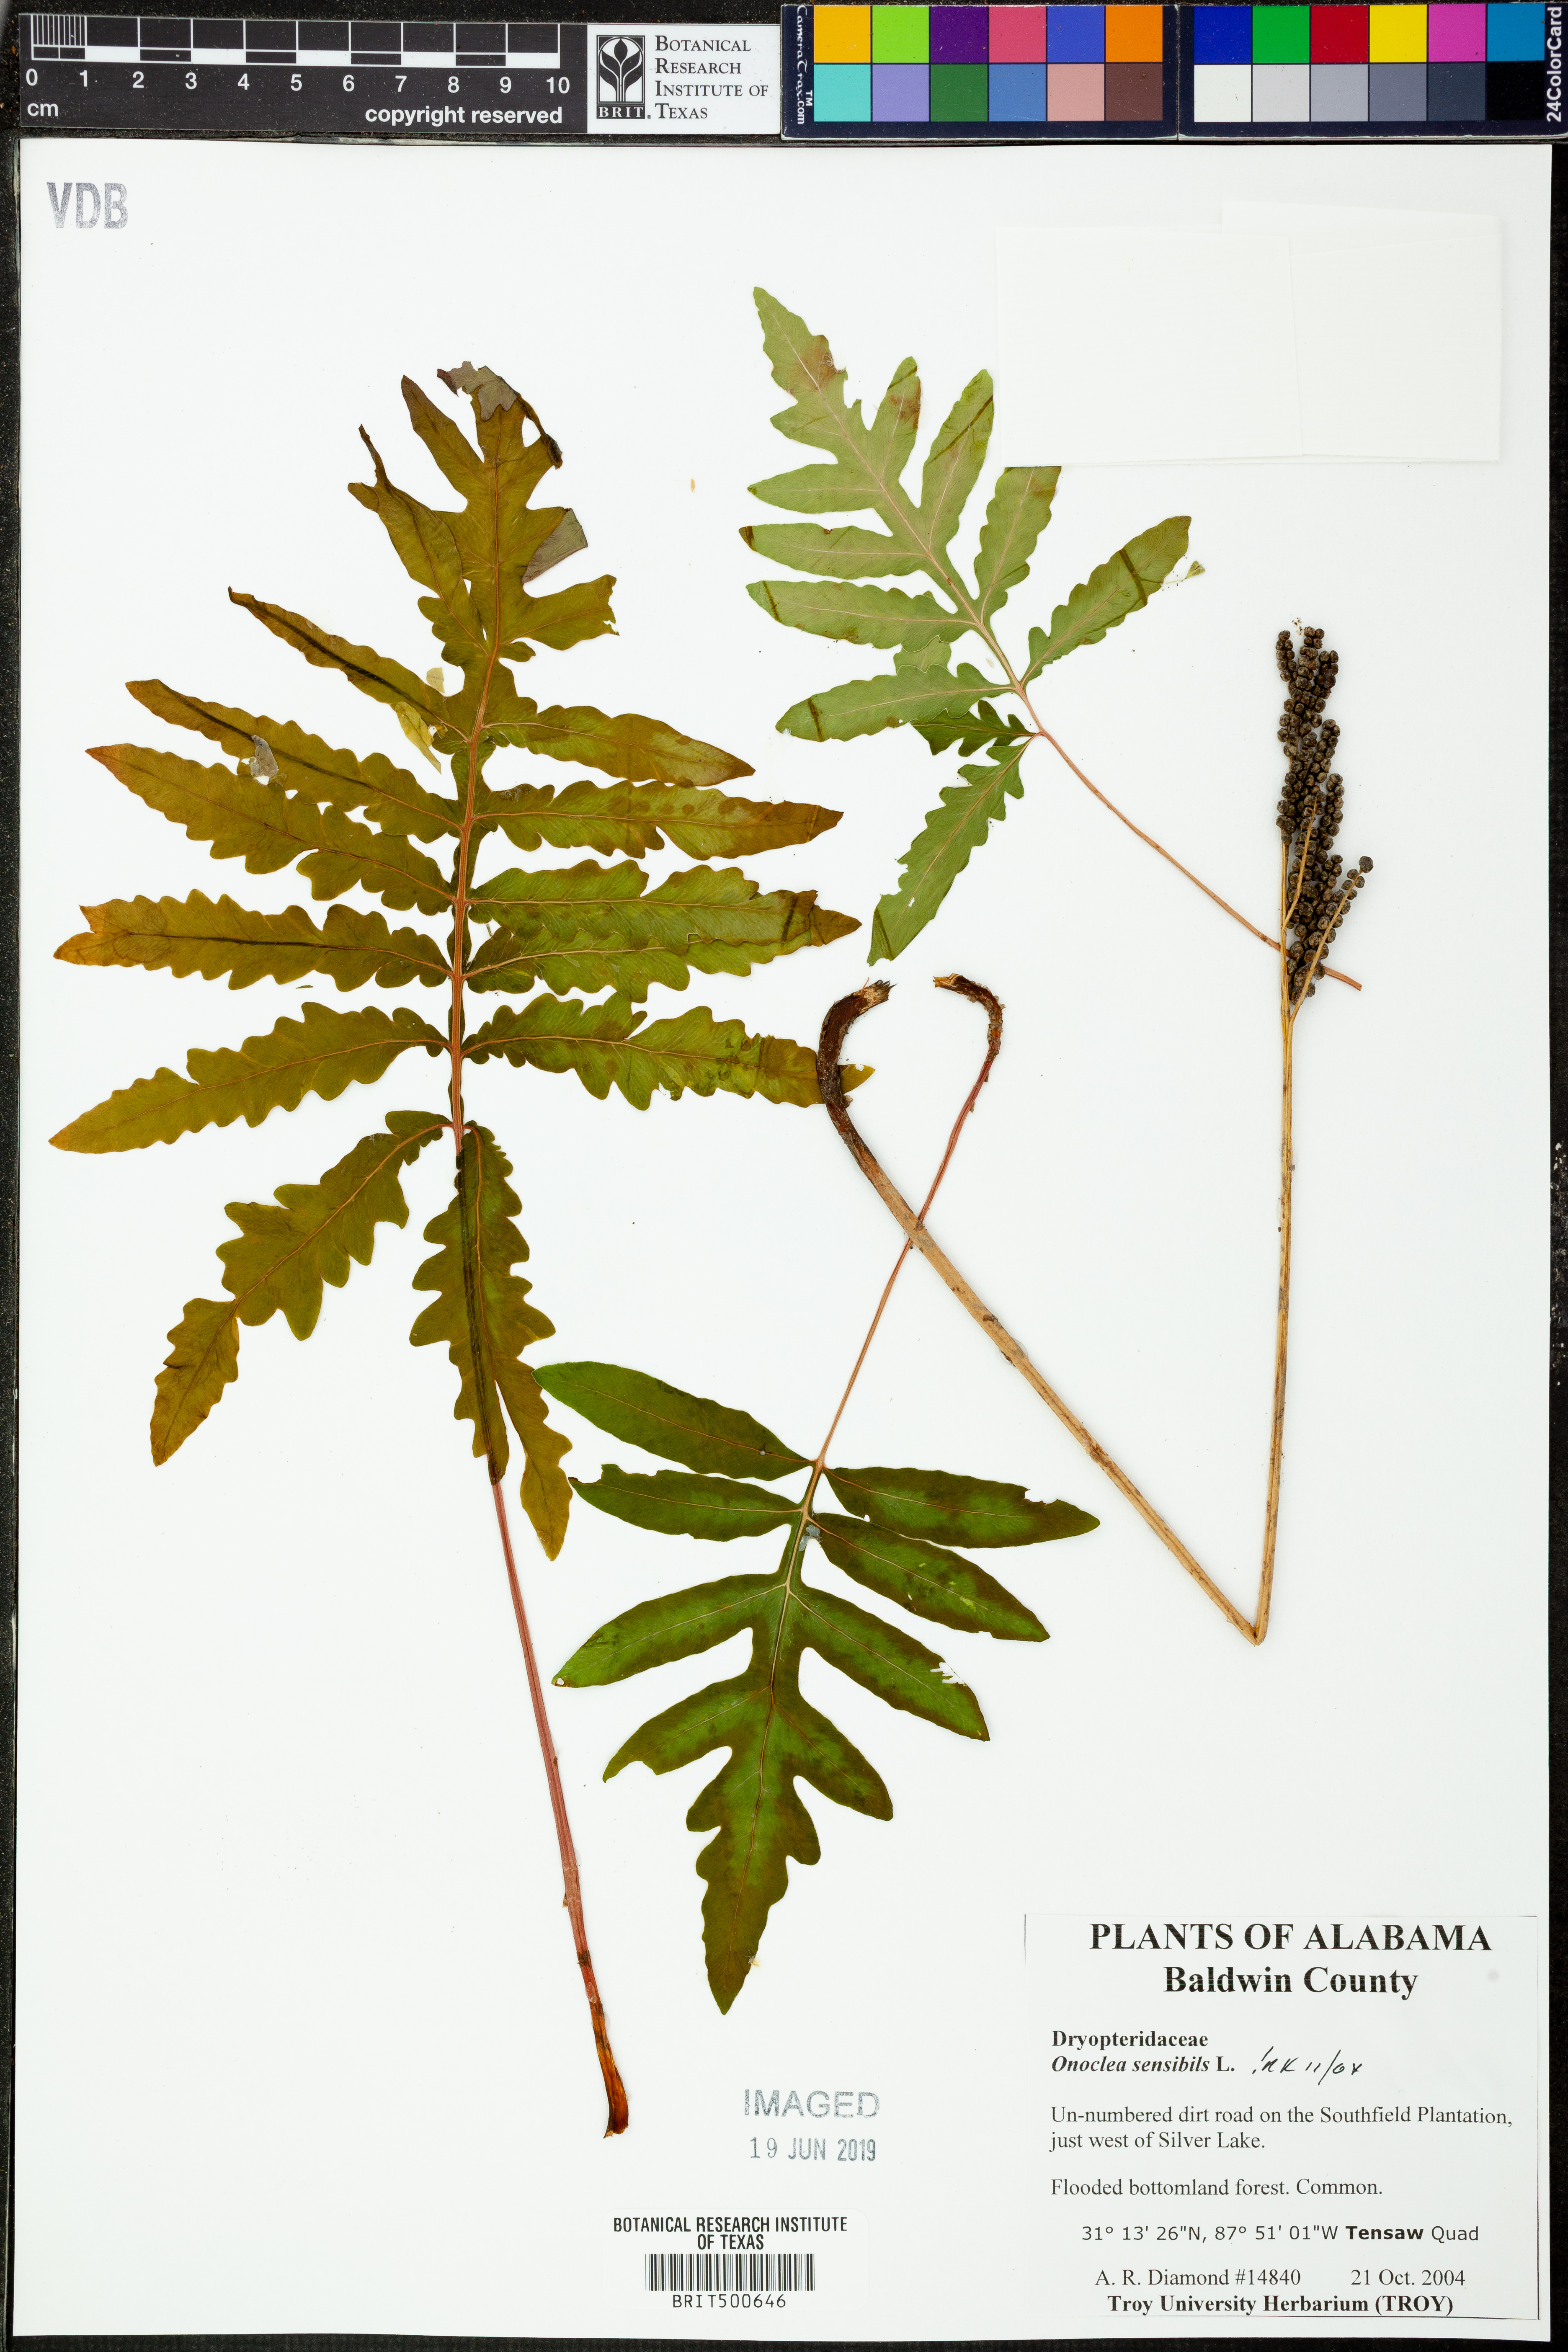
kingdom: Plantae
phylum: Tracheophyta
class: Polypodiopsida
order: Polypodiales
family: Onocleaceae
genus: Onoclea
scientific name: Onoclea sensibilis
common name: Sensitive fern
